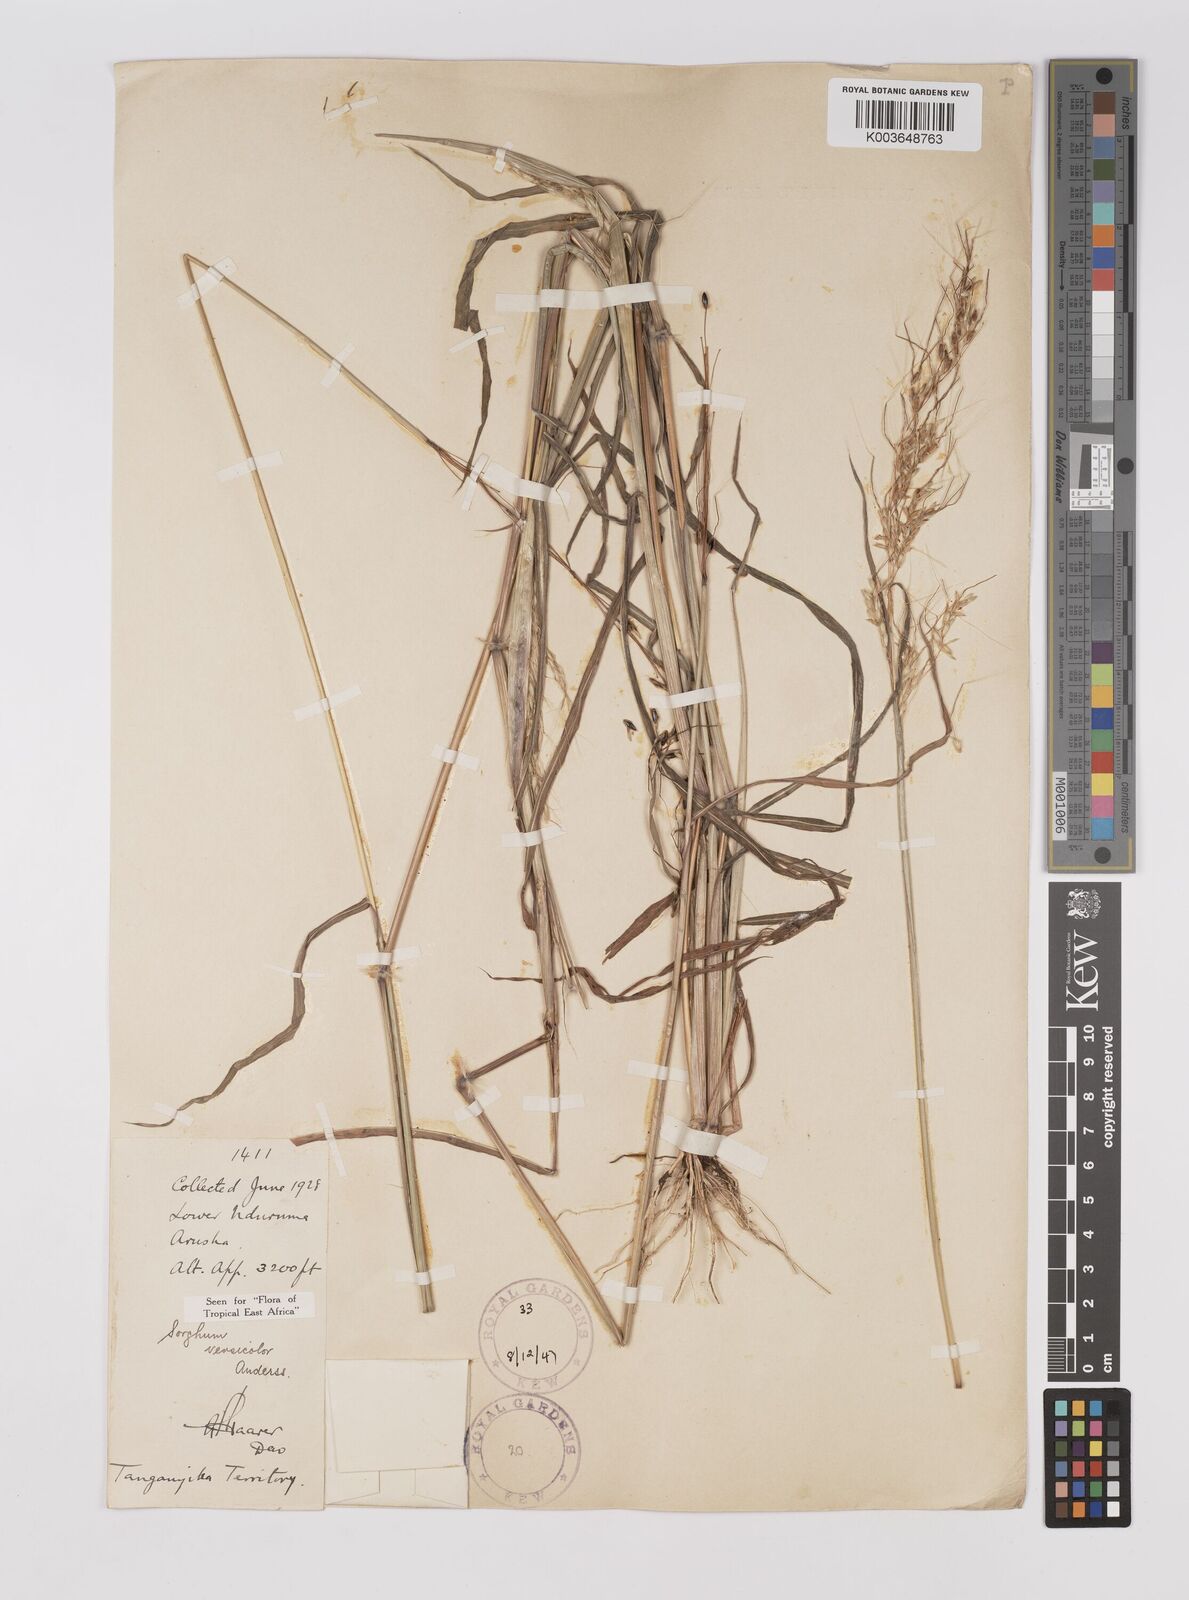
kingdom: Plantae
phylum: Tracheophyta
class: Liliopsida
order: Poales
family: Poaceae
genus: Sarga
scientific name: Sarga versicolor
